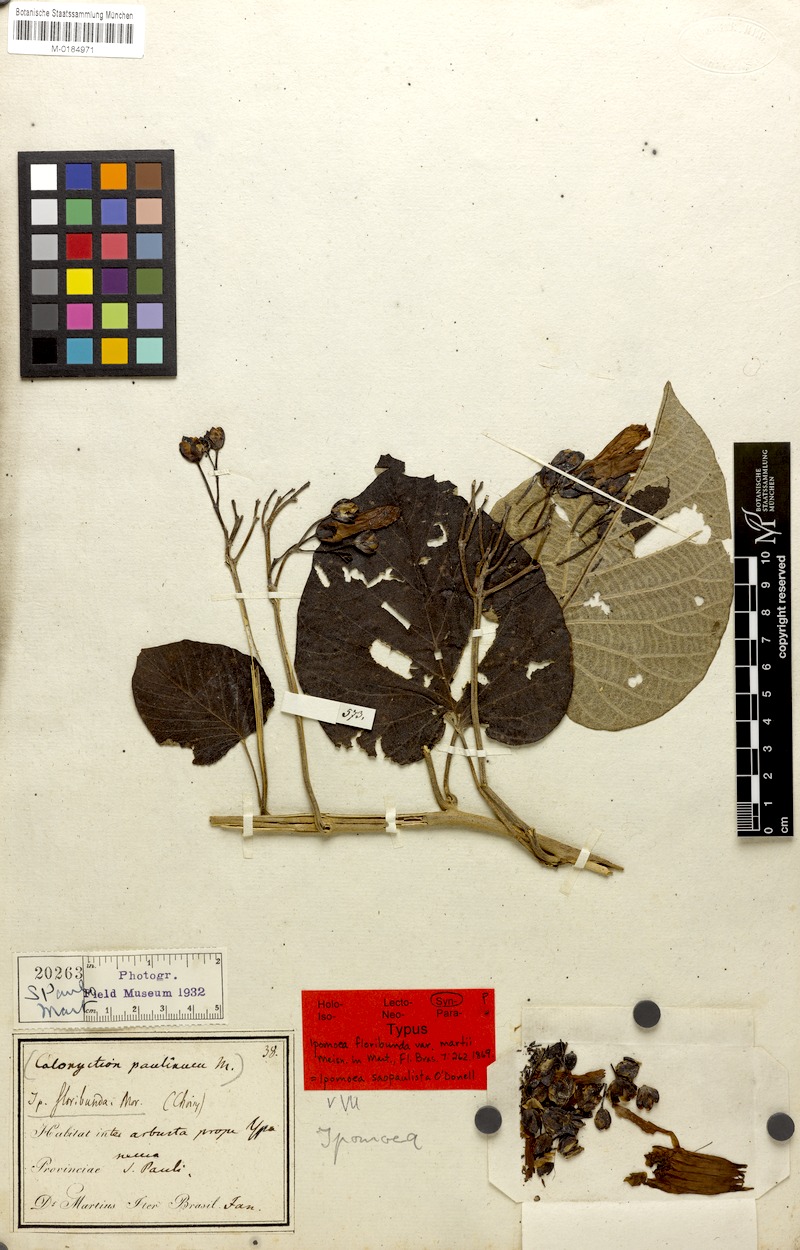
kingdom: Plantae
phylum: Tracheophyta
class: Magnoliopsida
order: Solanales
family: Convolvulaceae
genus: Ipomoea
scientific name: Ipomoea saopaulista
